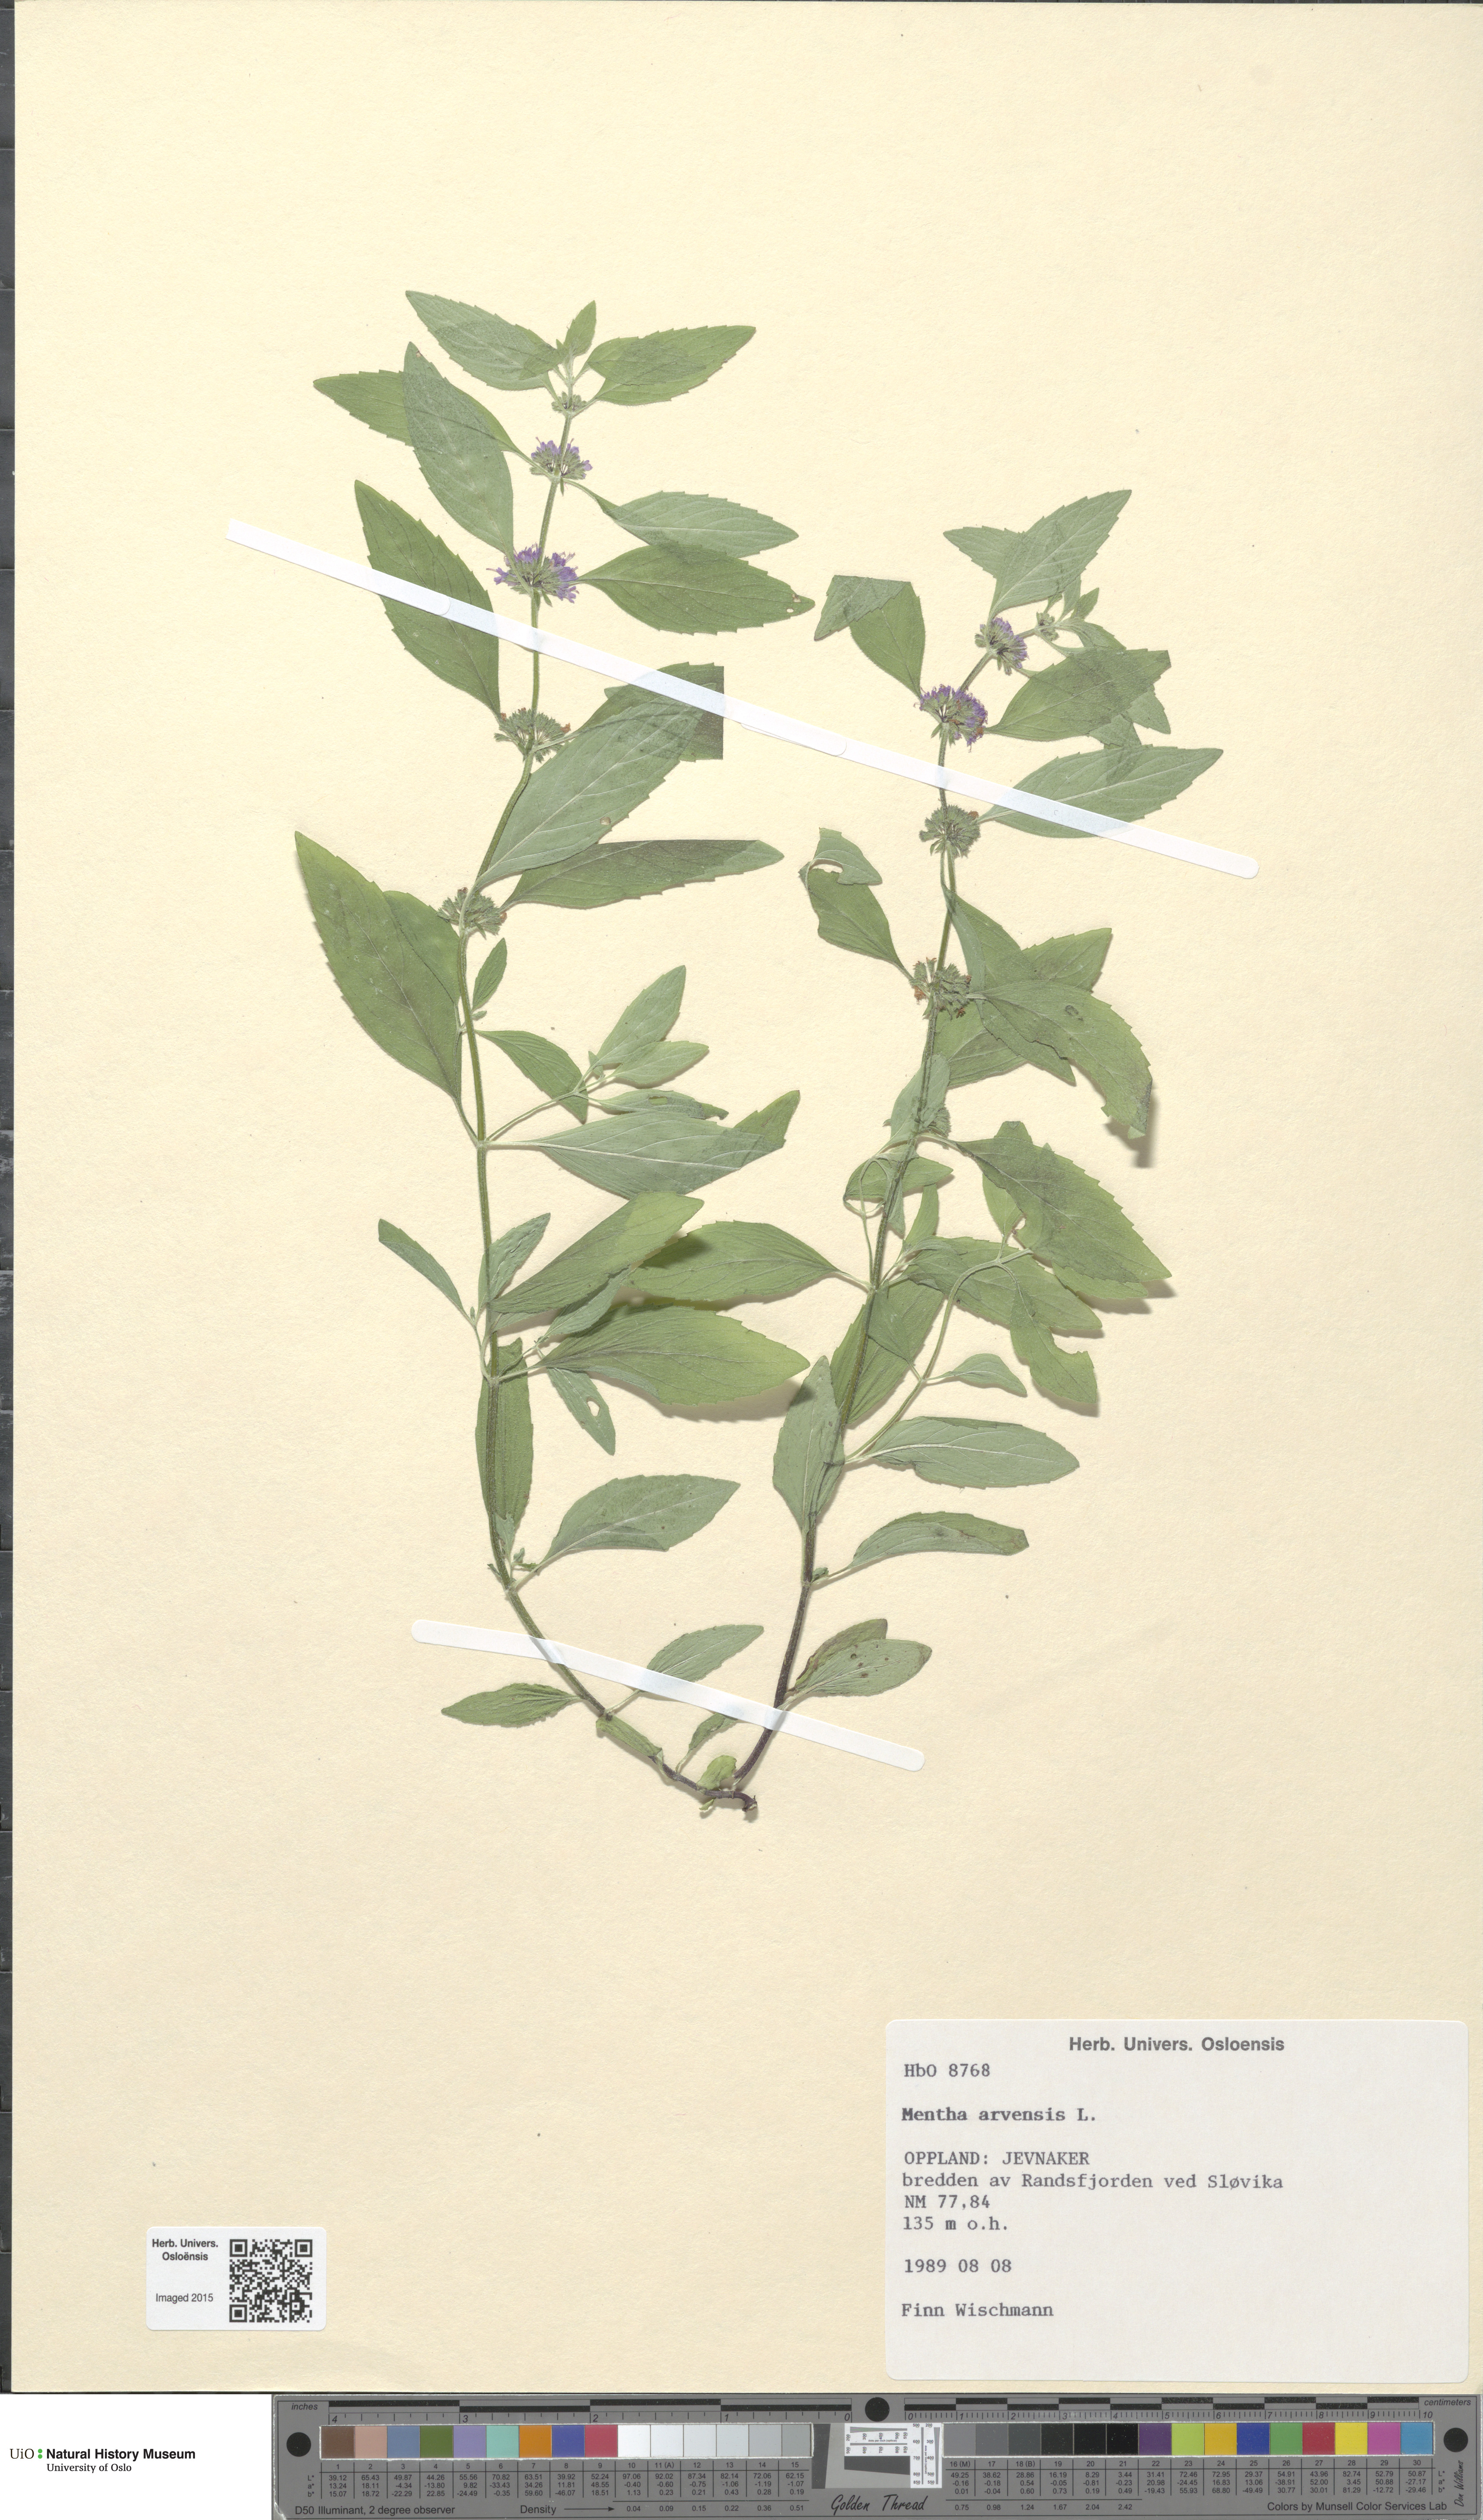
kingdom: Plantae
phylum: Tracheophyta
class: Magnoliopsida
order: Lamiales
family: Lamiaceae
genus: Mentha
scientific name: Mentha arvensis
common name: Corn mint
